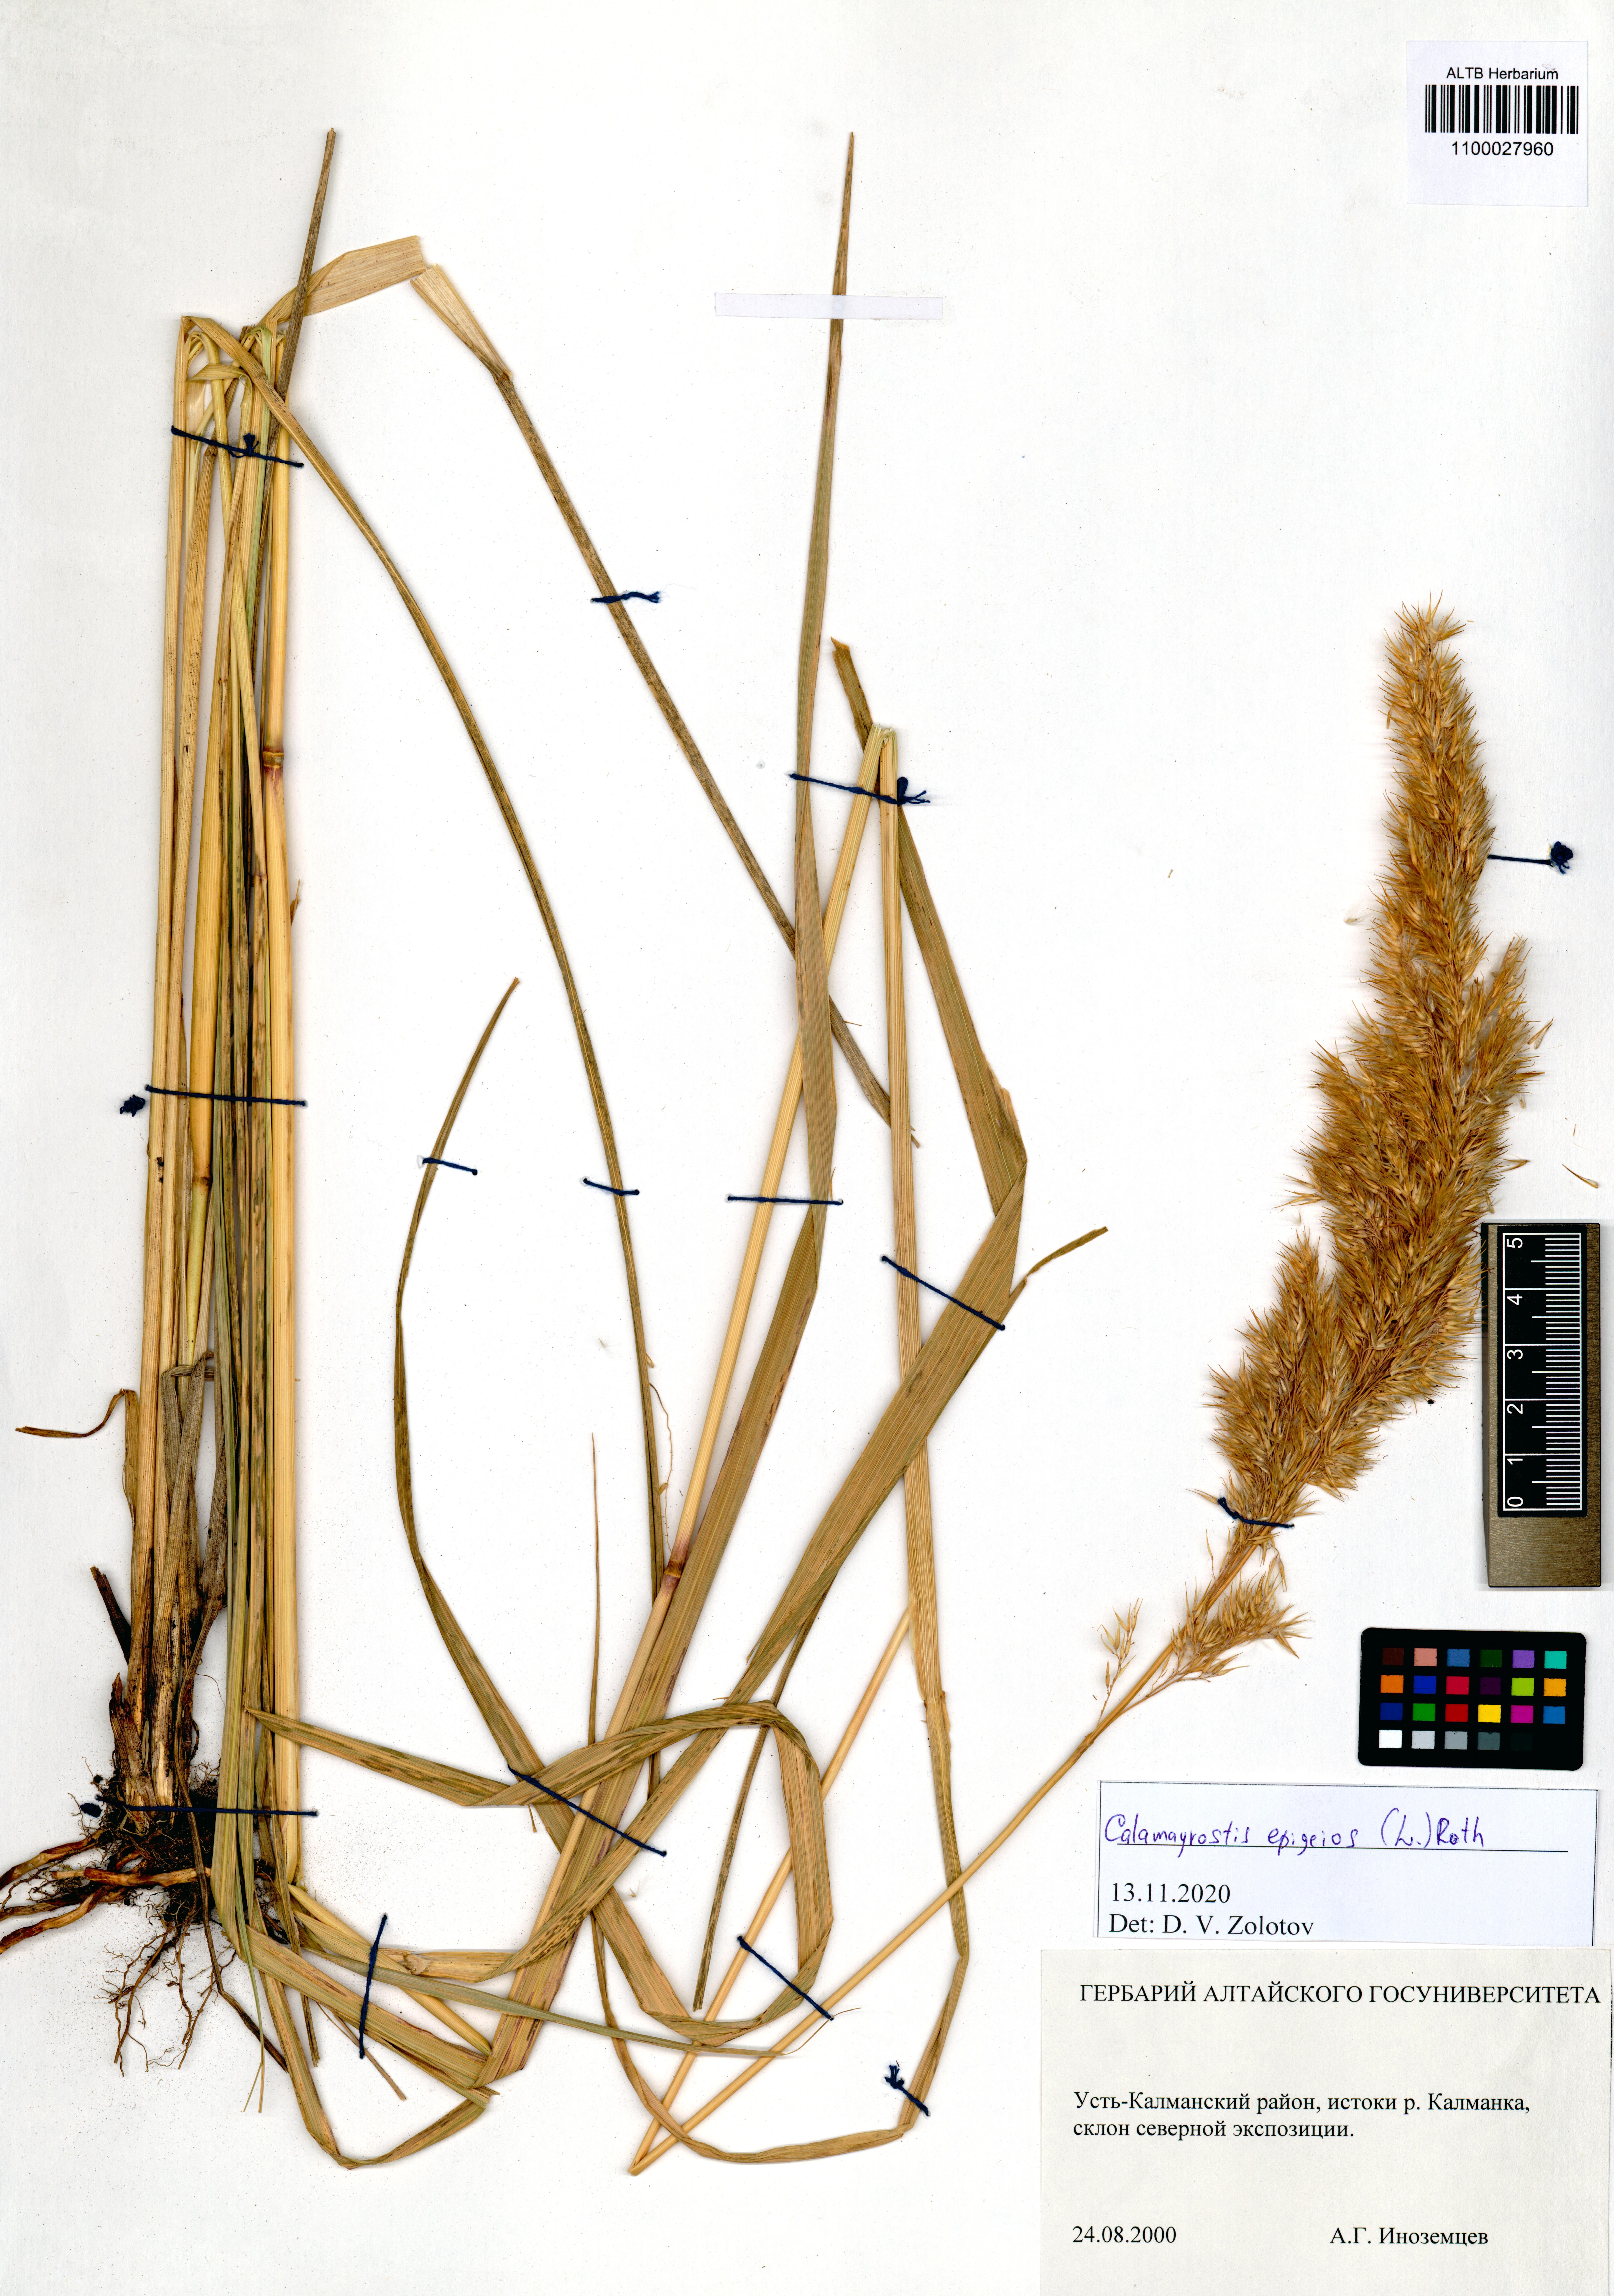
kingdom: Plantae
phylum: Tracheophyta
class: Liliopsida
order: Poales
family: Poaceae
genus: Calamagrostis
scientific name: Calamagrostis epigejos
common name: Wood small-reed
